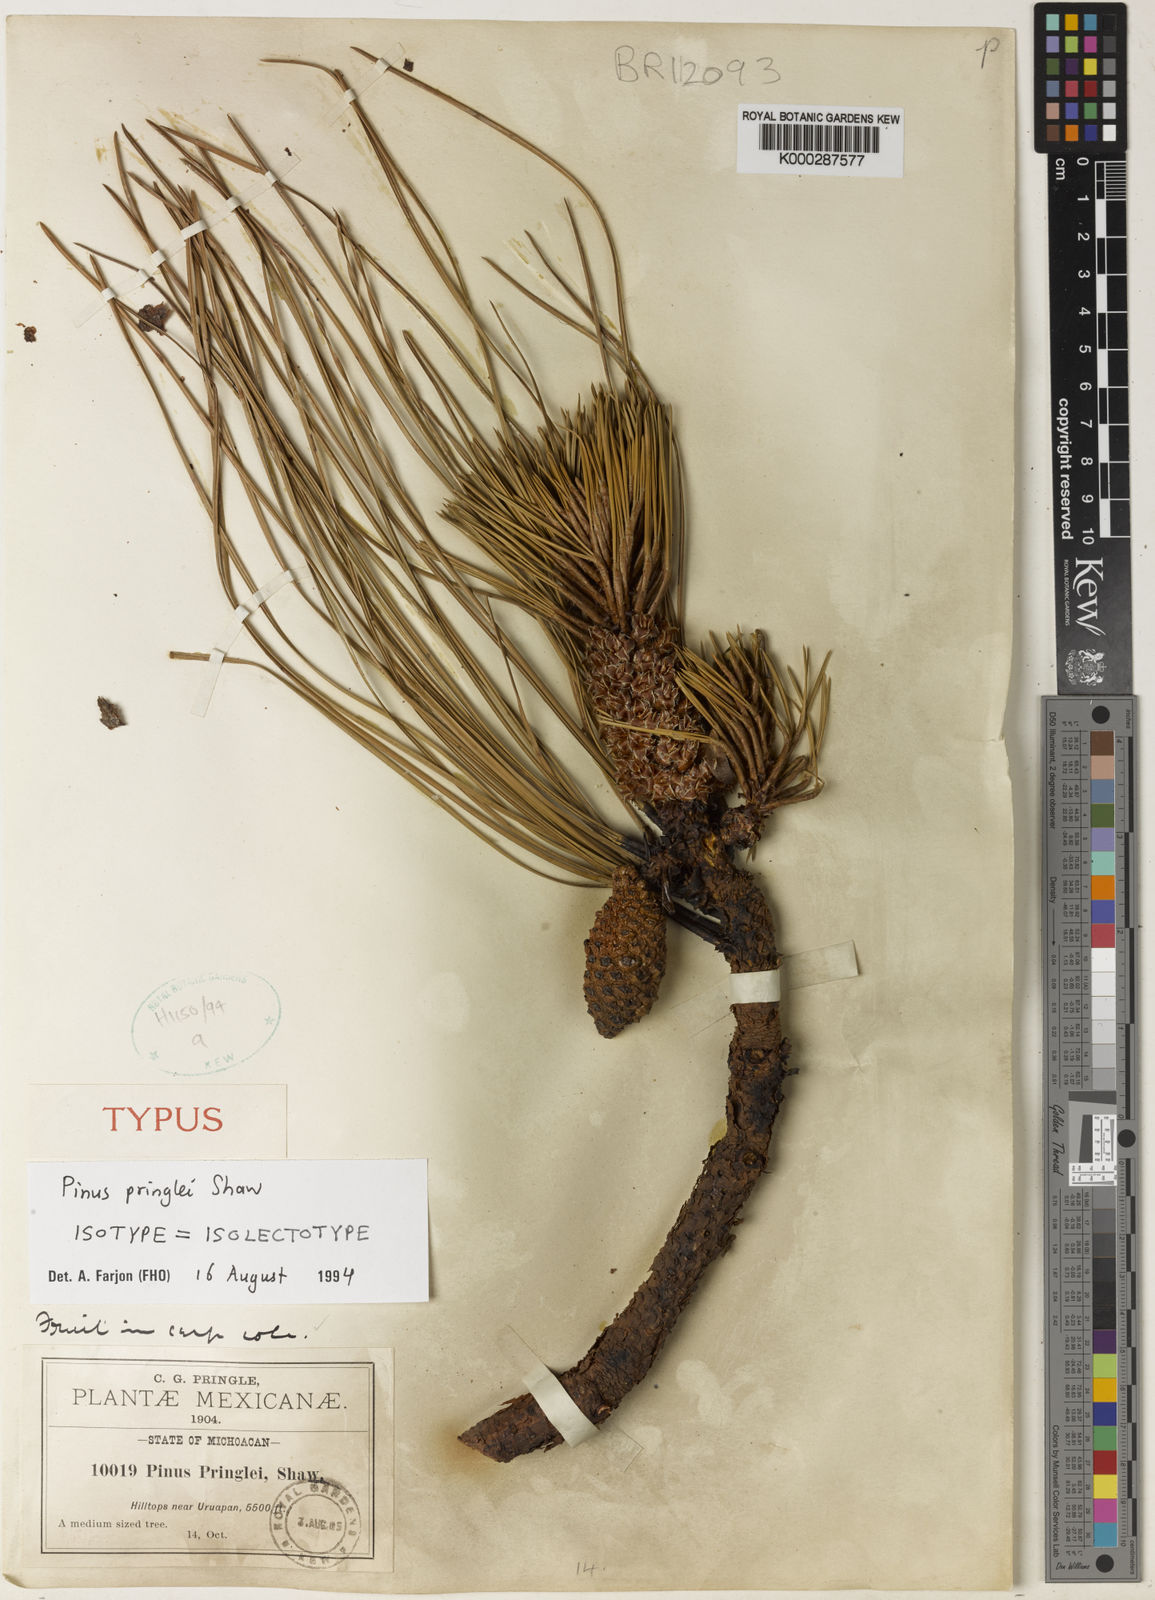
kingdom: Plantae
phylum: Tracheophyta
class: Pinopsida
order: Pinales
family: Pinaceae
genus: Pinus
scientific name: Pinus pringlei
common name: Pringle's pine
